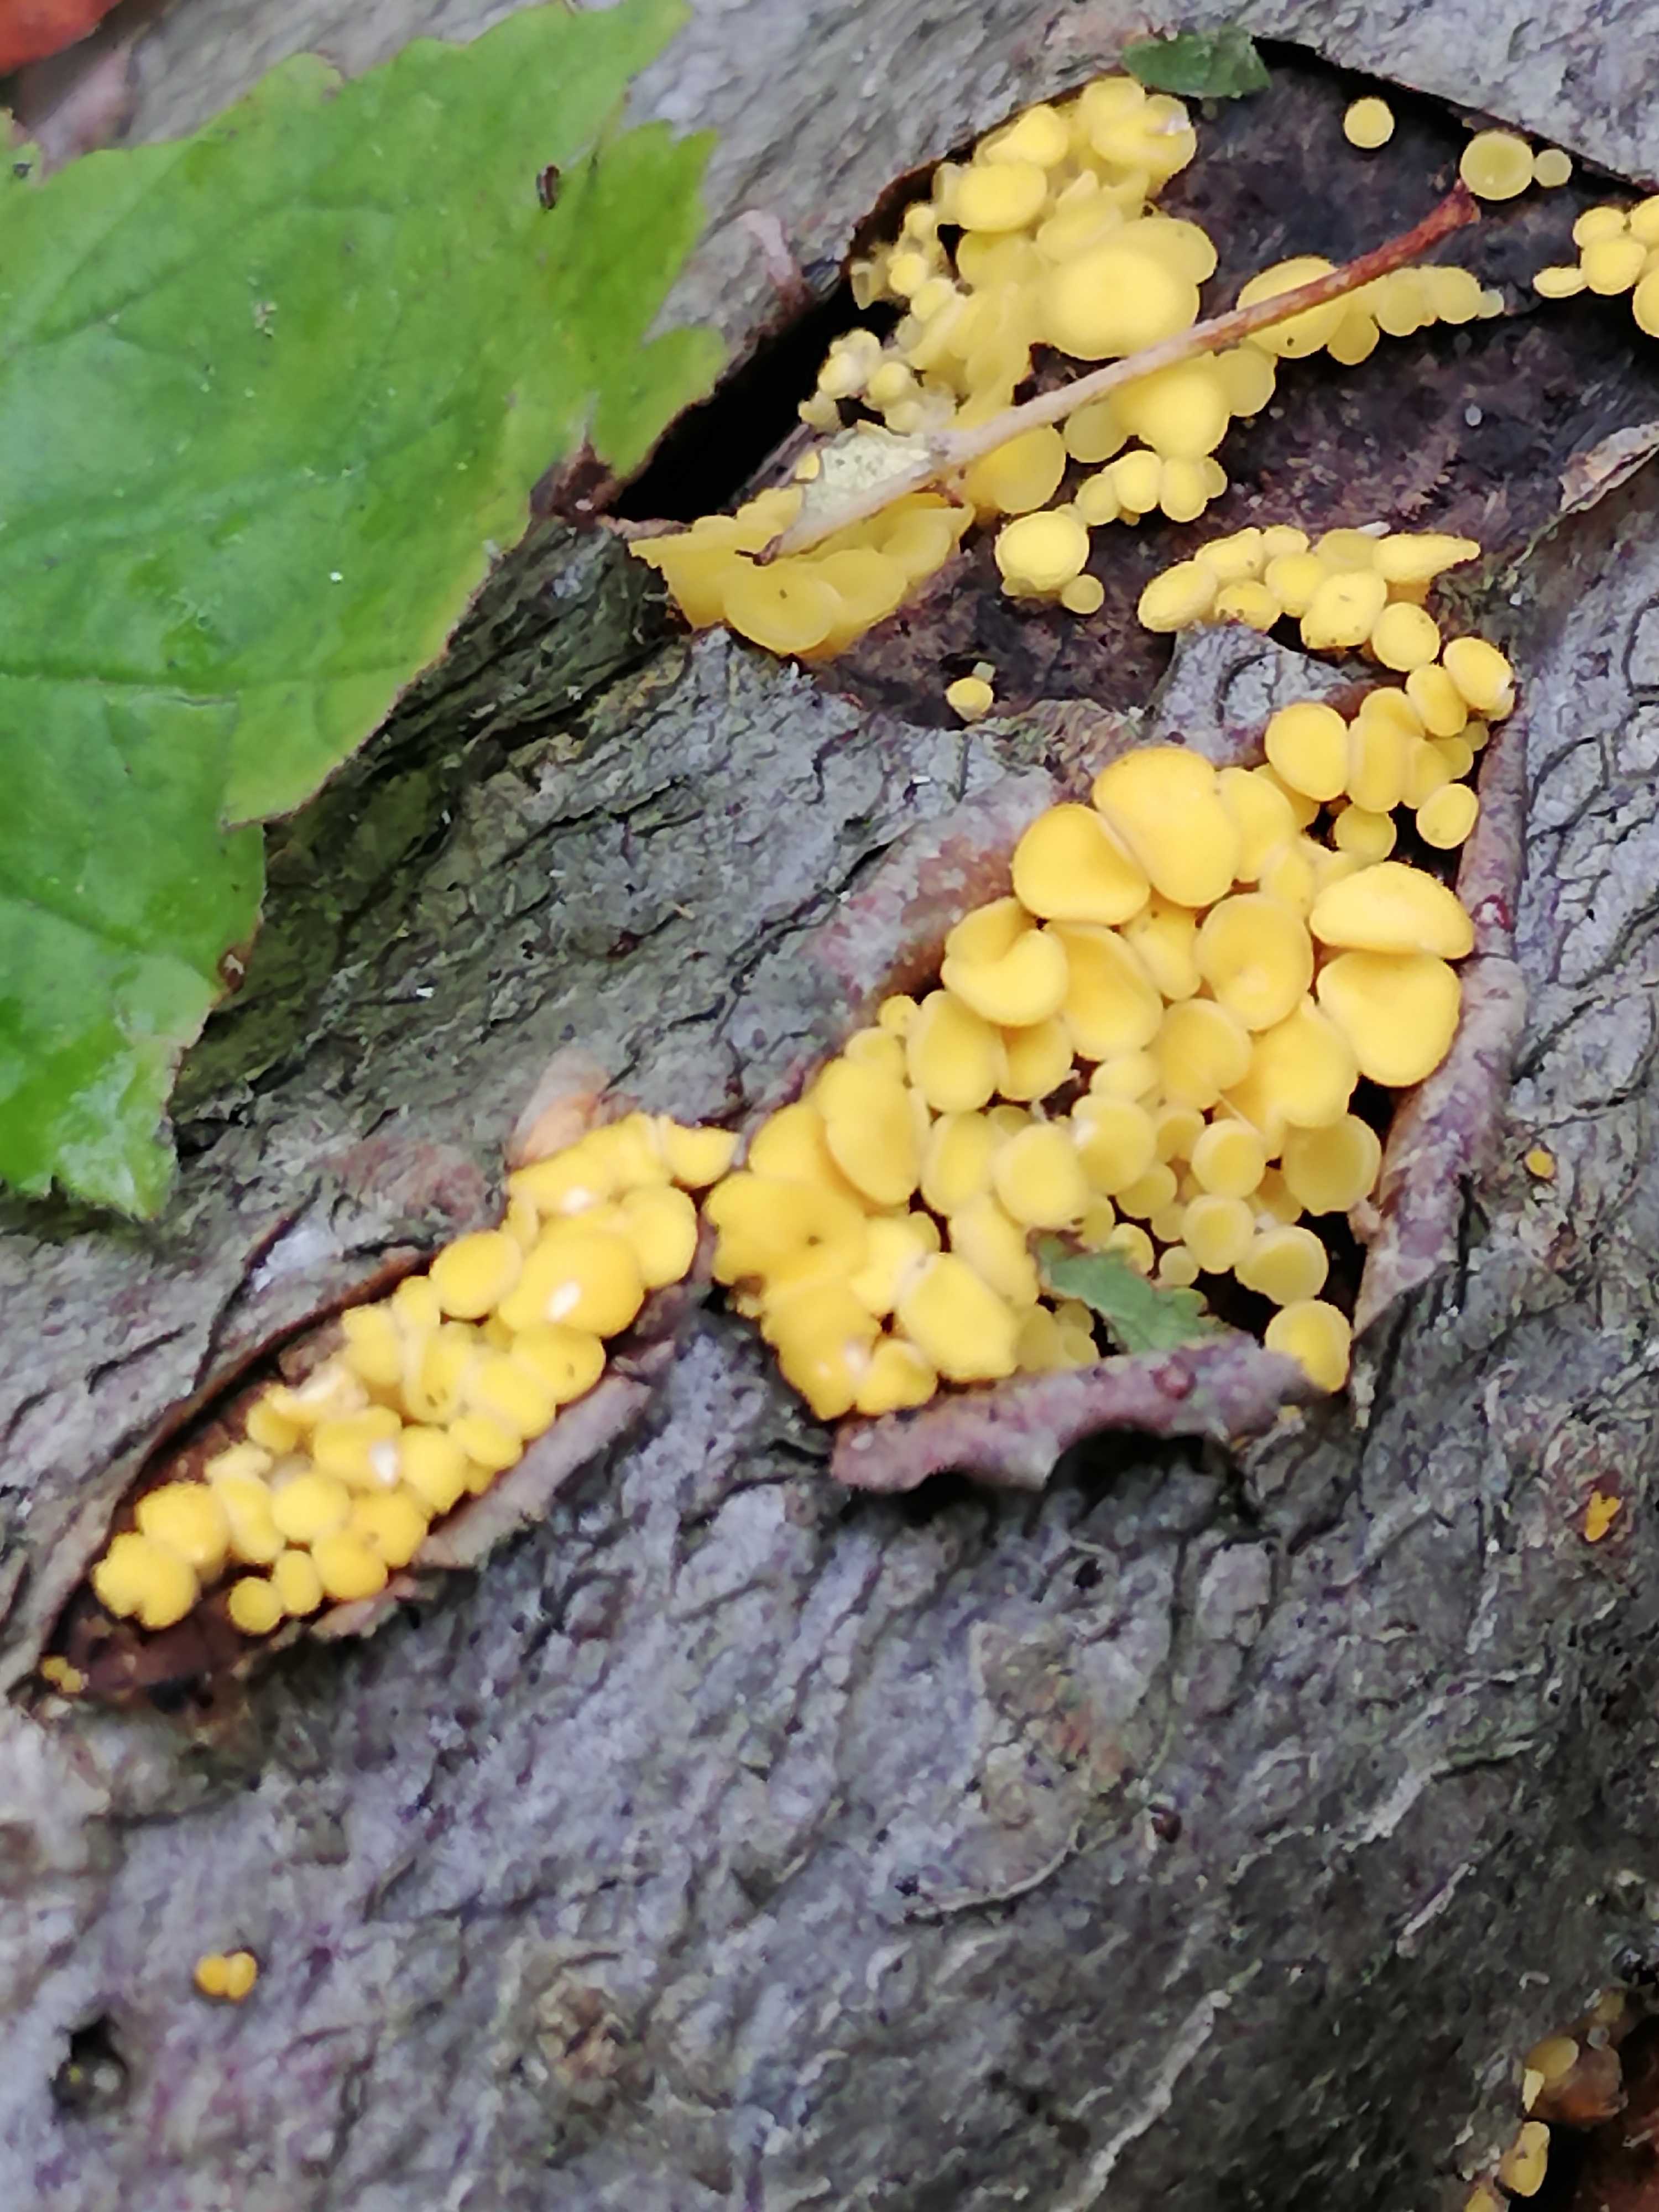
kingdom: Fungi
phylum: Ascomycota
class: Leotiomycetes
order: Helotiales
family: Pezizellaceae
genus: Calycina
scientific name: Calycina citrina
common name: almindelig gulskive
